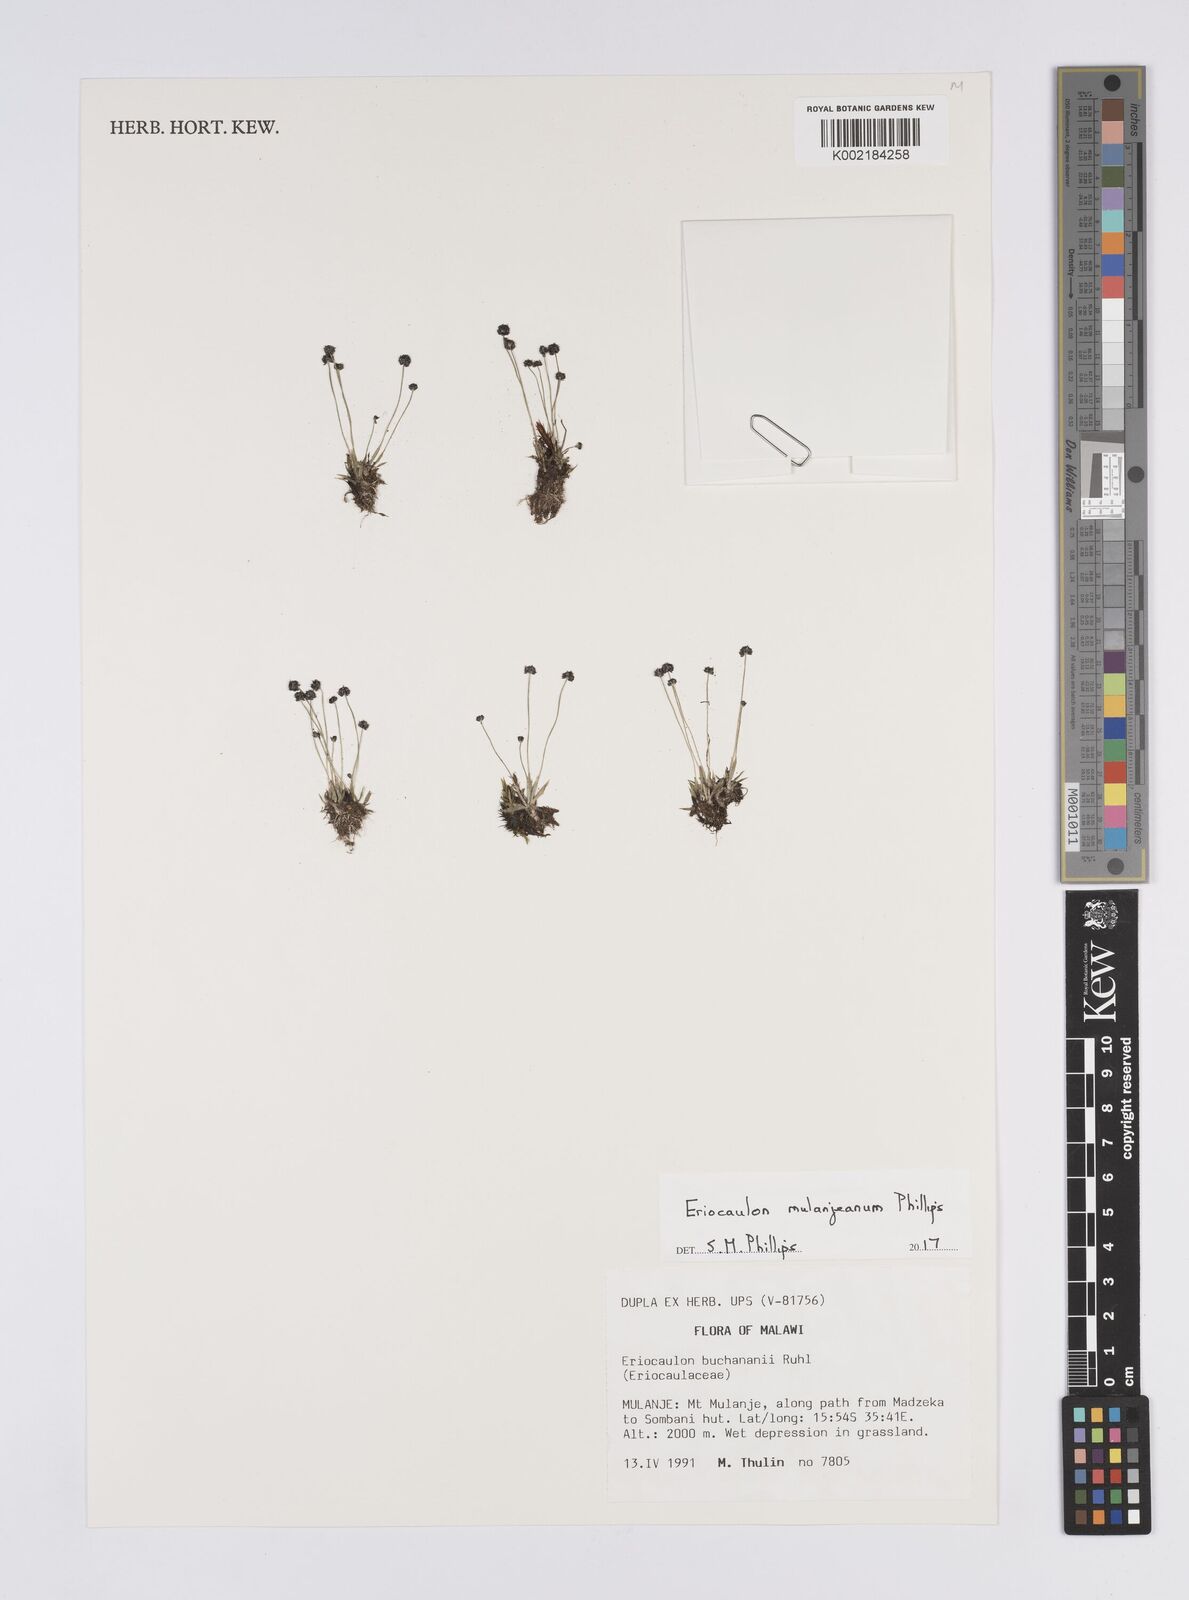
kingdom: Plantae
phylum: Tracheophyta
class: Liliopsida
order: Poales
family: Eriocaulaceae
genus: Eriocaulon
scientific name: Eriocaulon mulanjeanum
